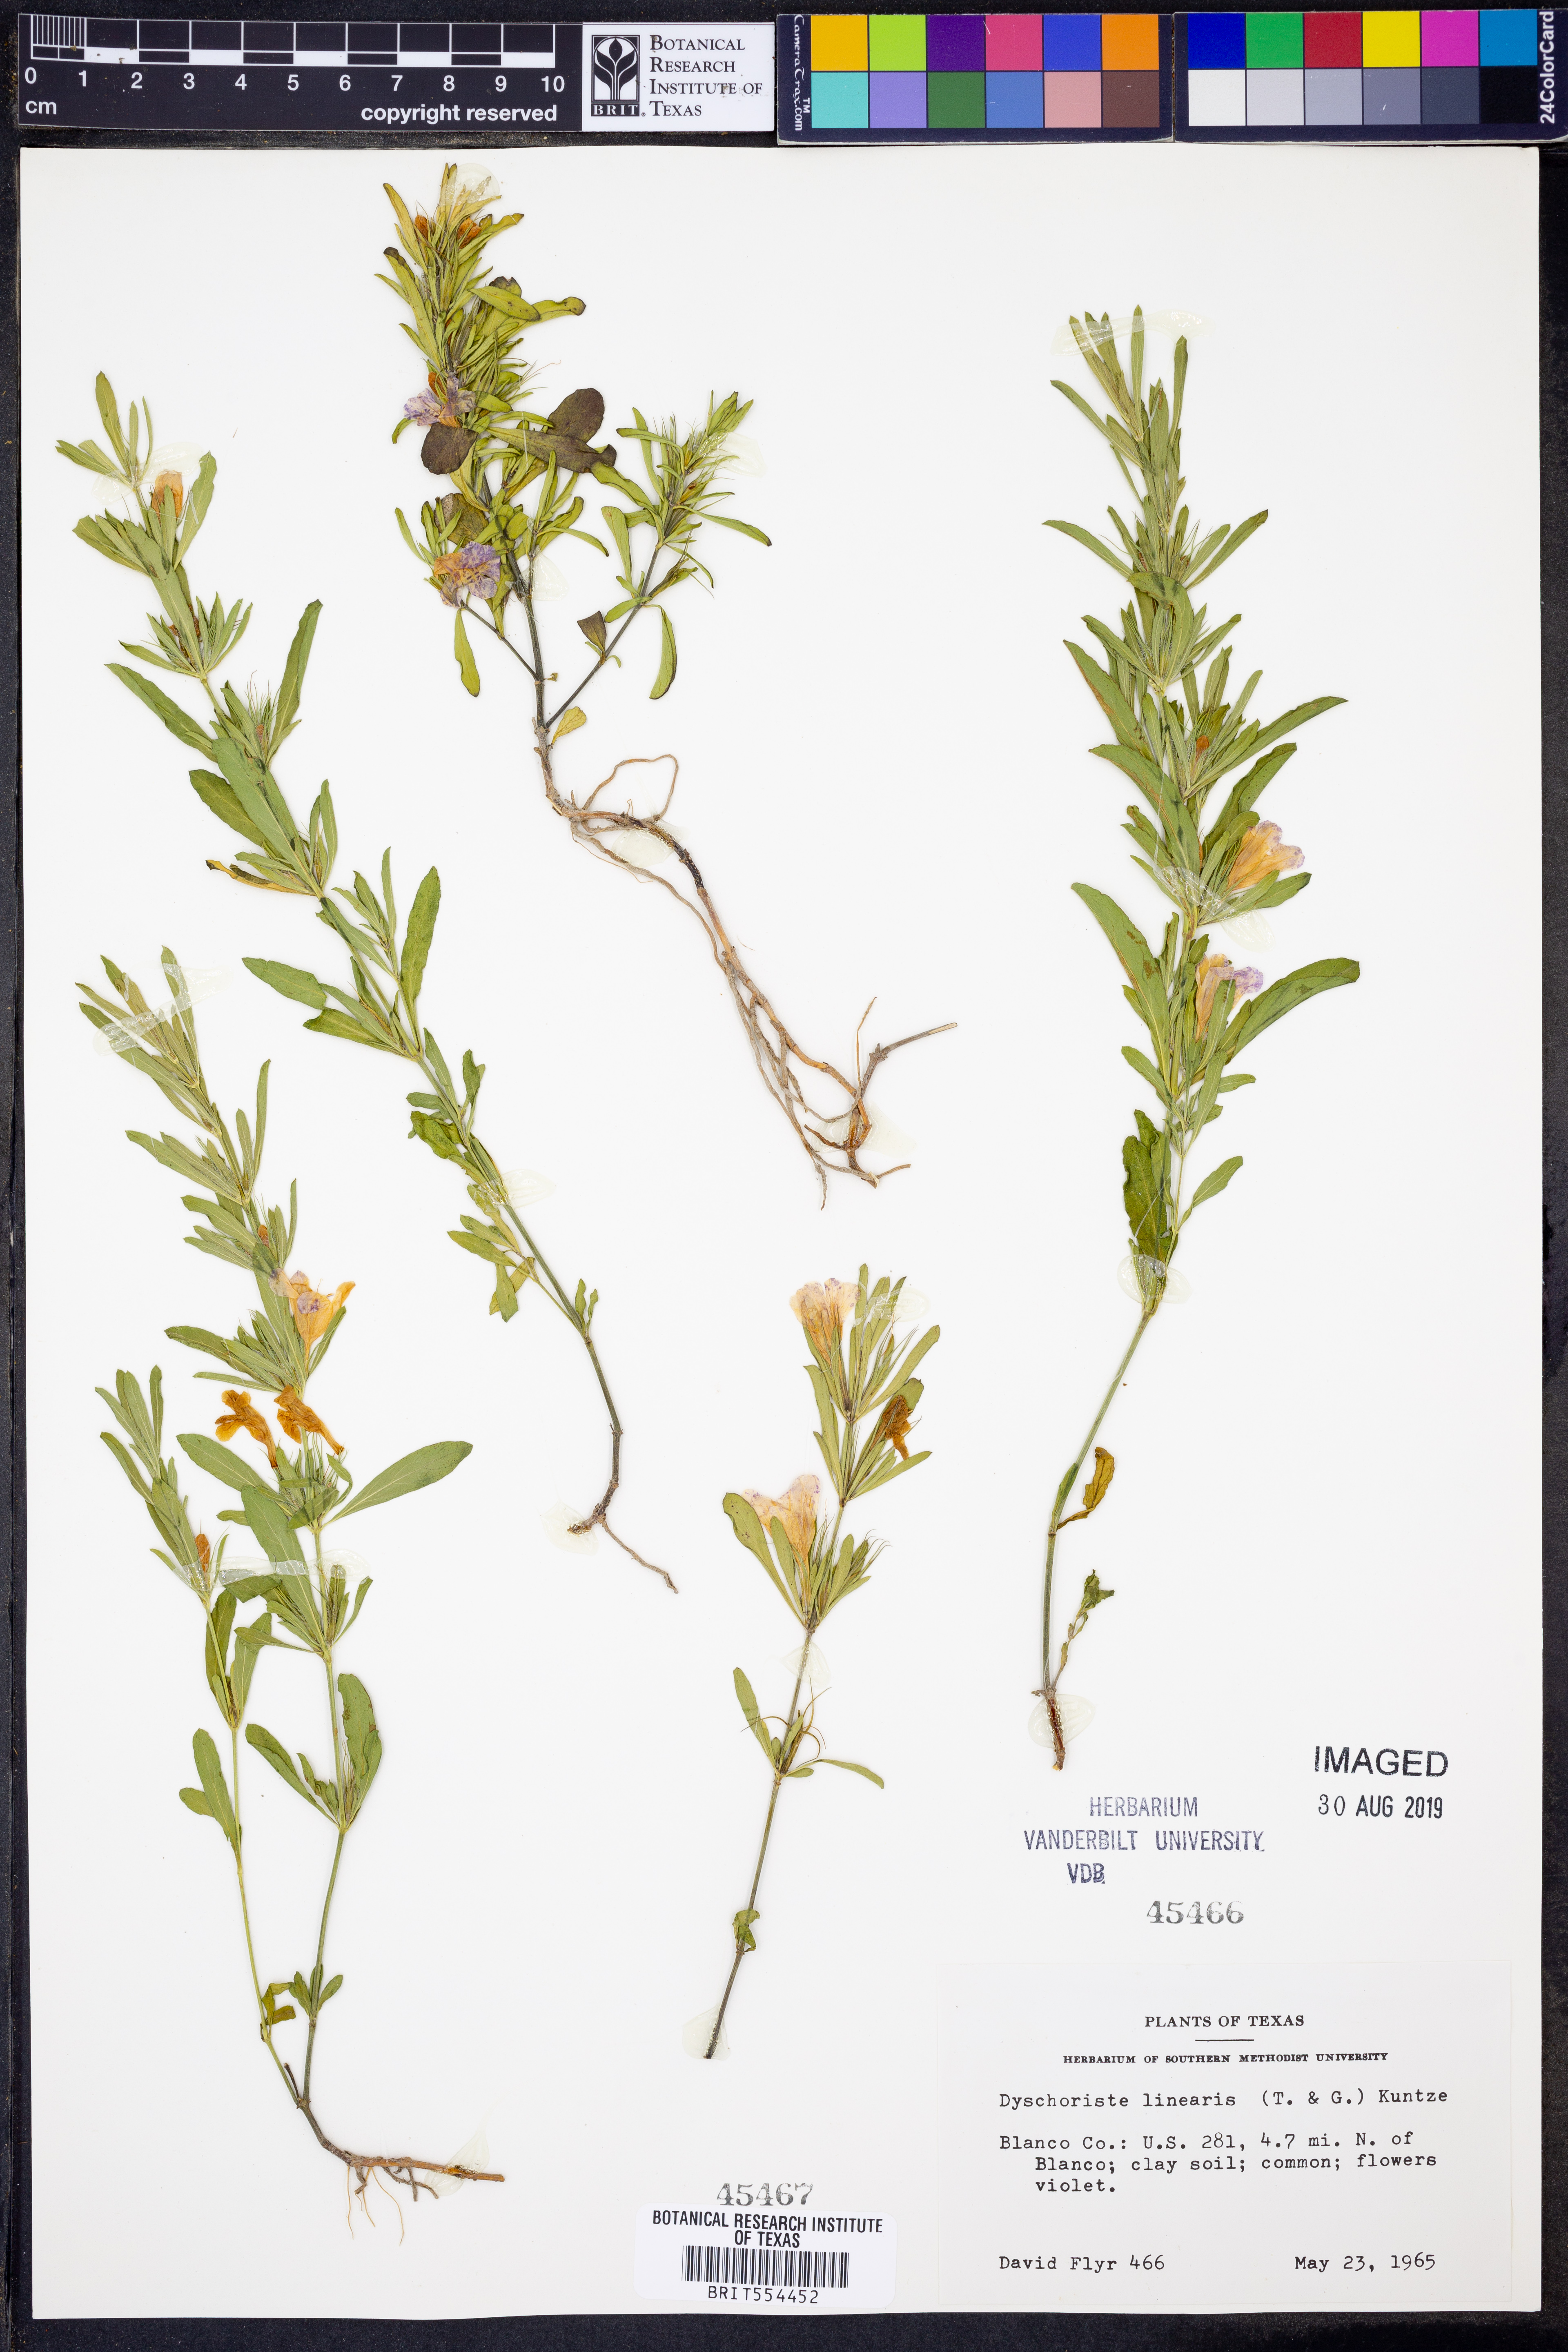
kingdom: Plantae
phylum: Tracheophyta
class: Magnoliopsida
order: Lamiales
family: Acanthaceae
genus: Dyschoriste
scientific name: Dyschoriste linearis
